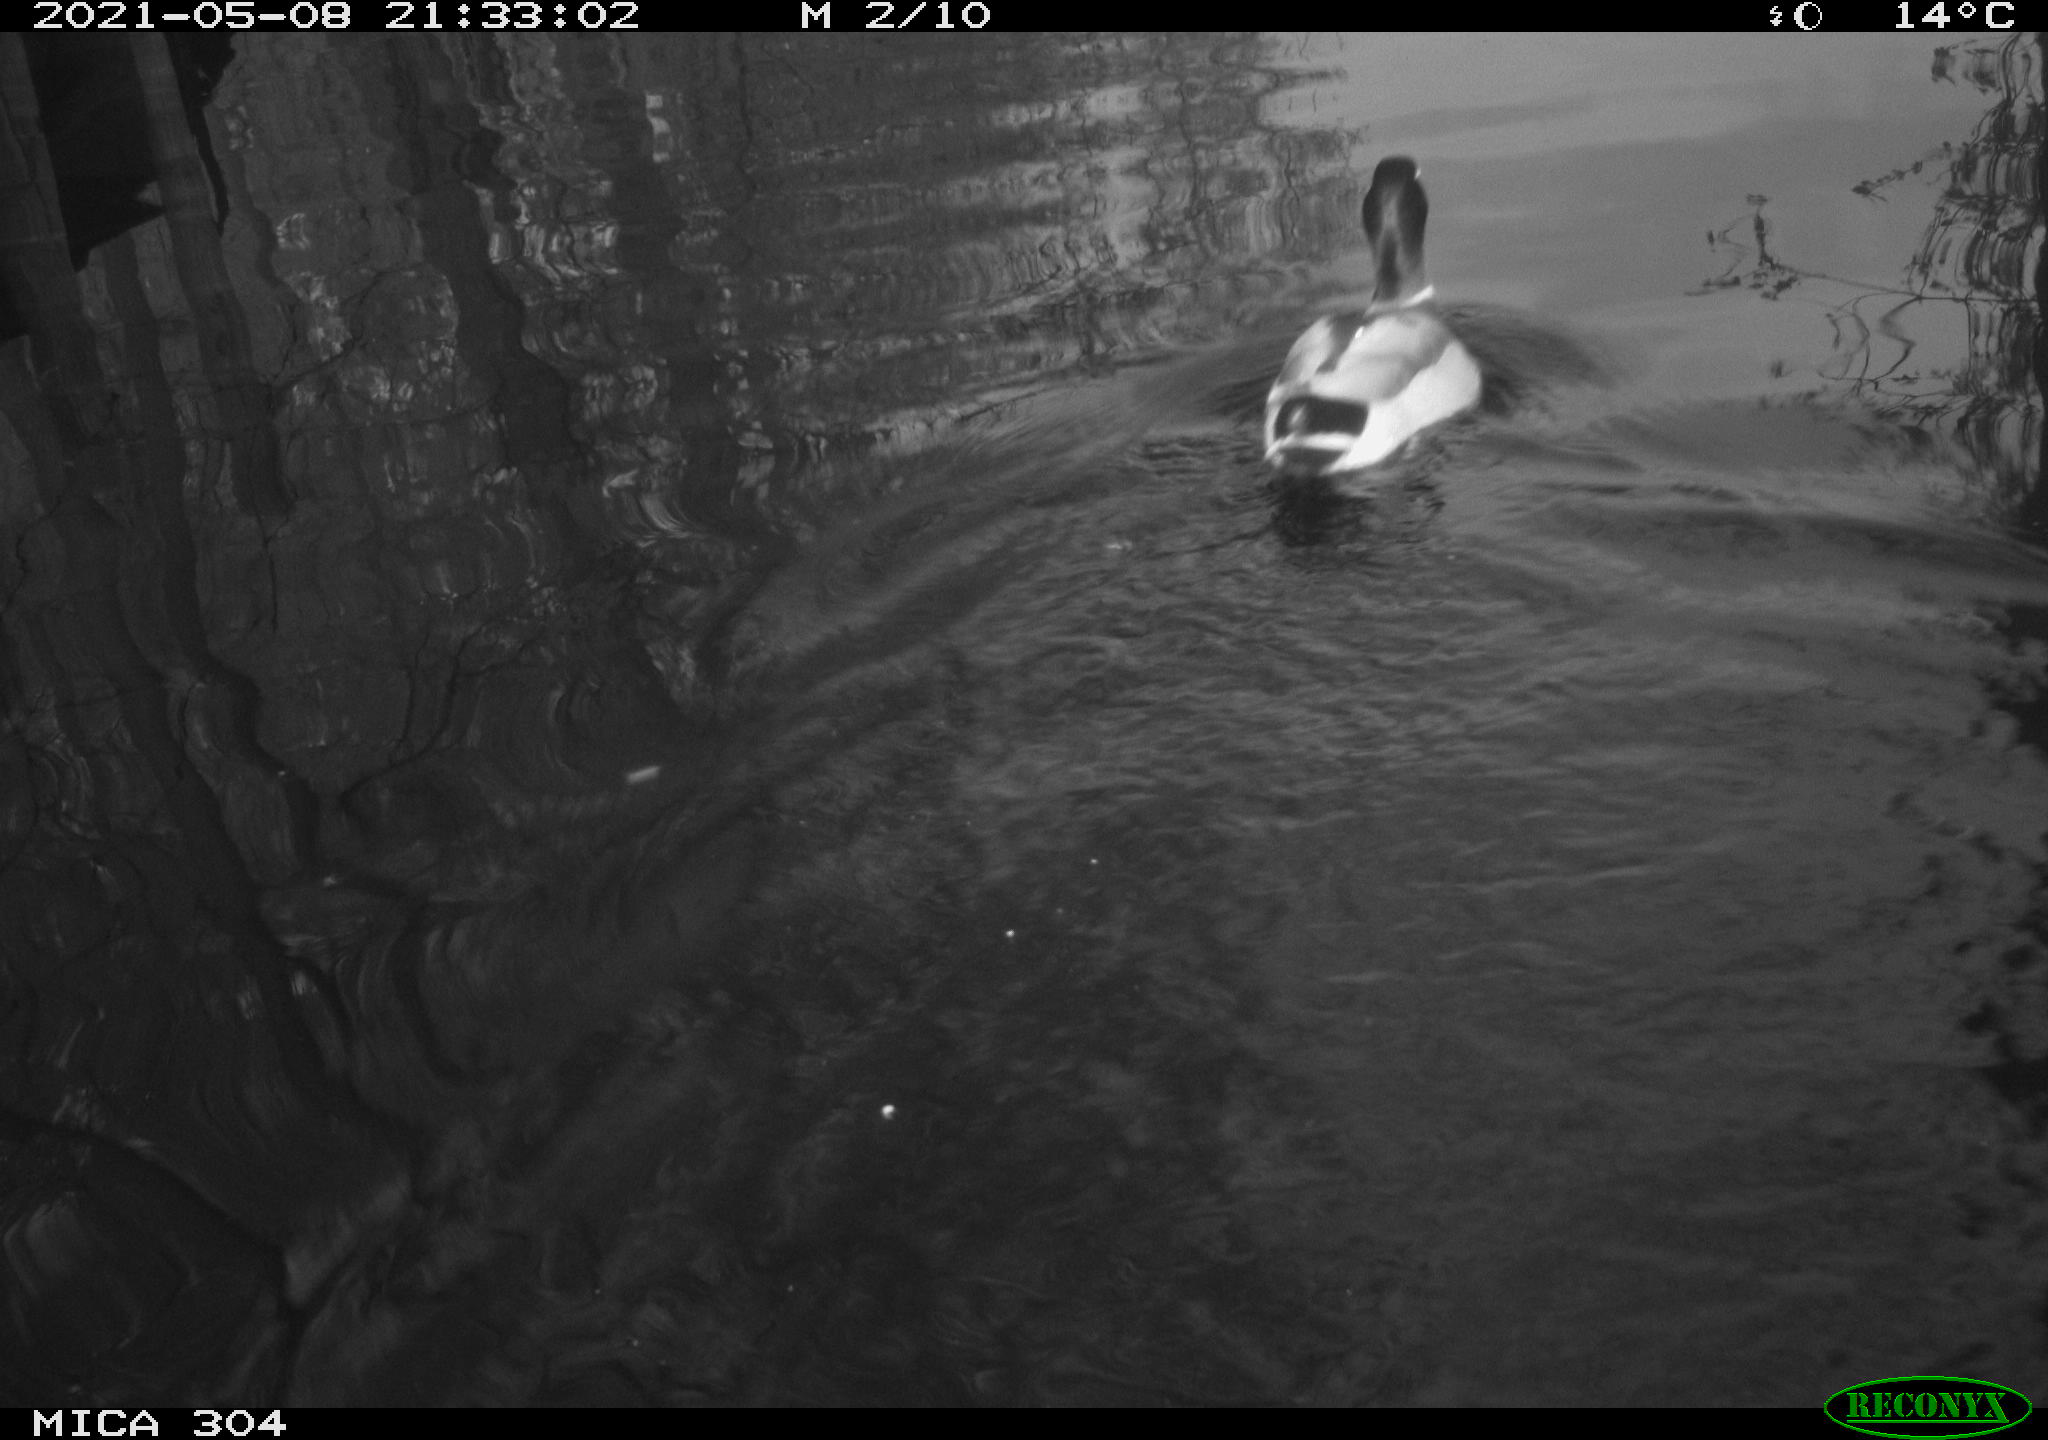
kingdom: Animalia
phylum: Chordata
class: Aves
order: Anseriformes
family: Anatidae
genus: Anas
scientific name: Anas platyrhynchos
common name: Mallard
